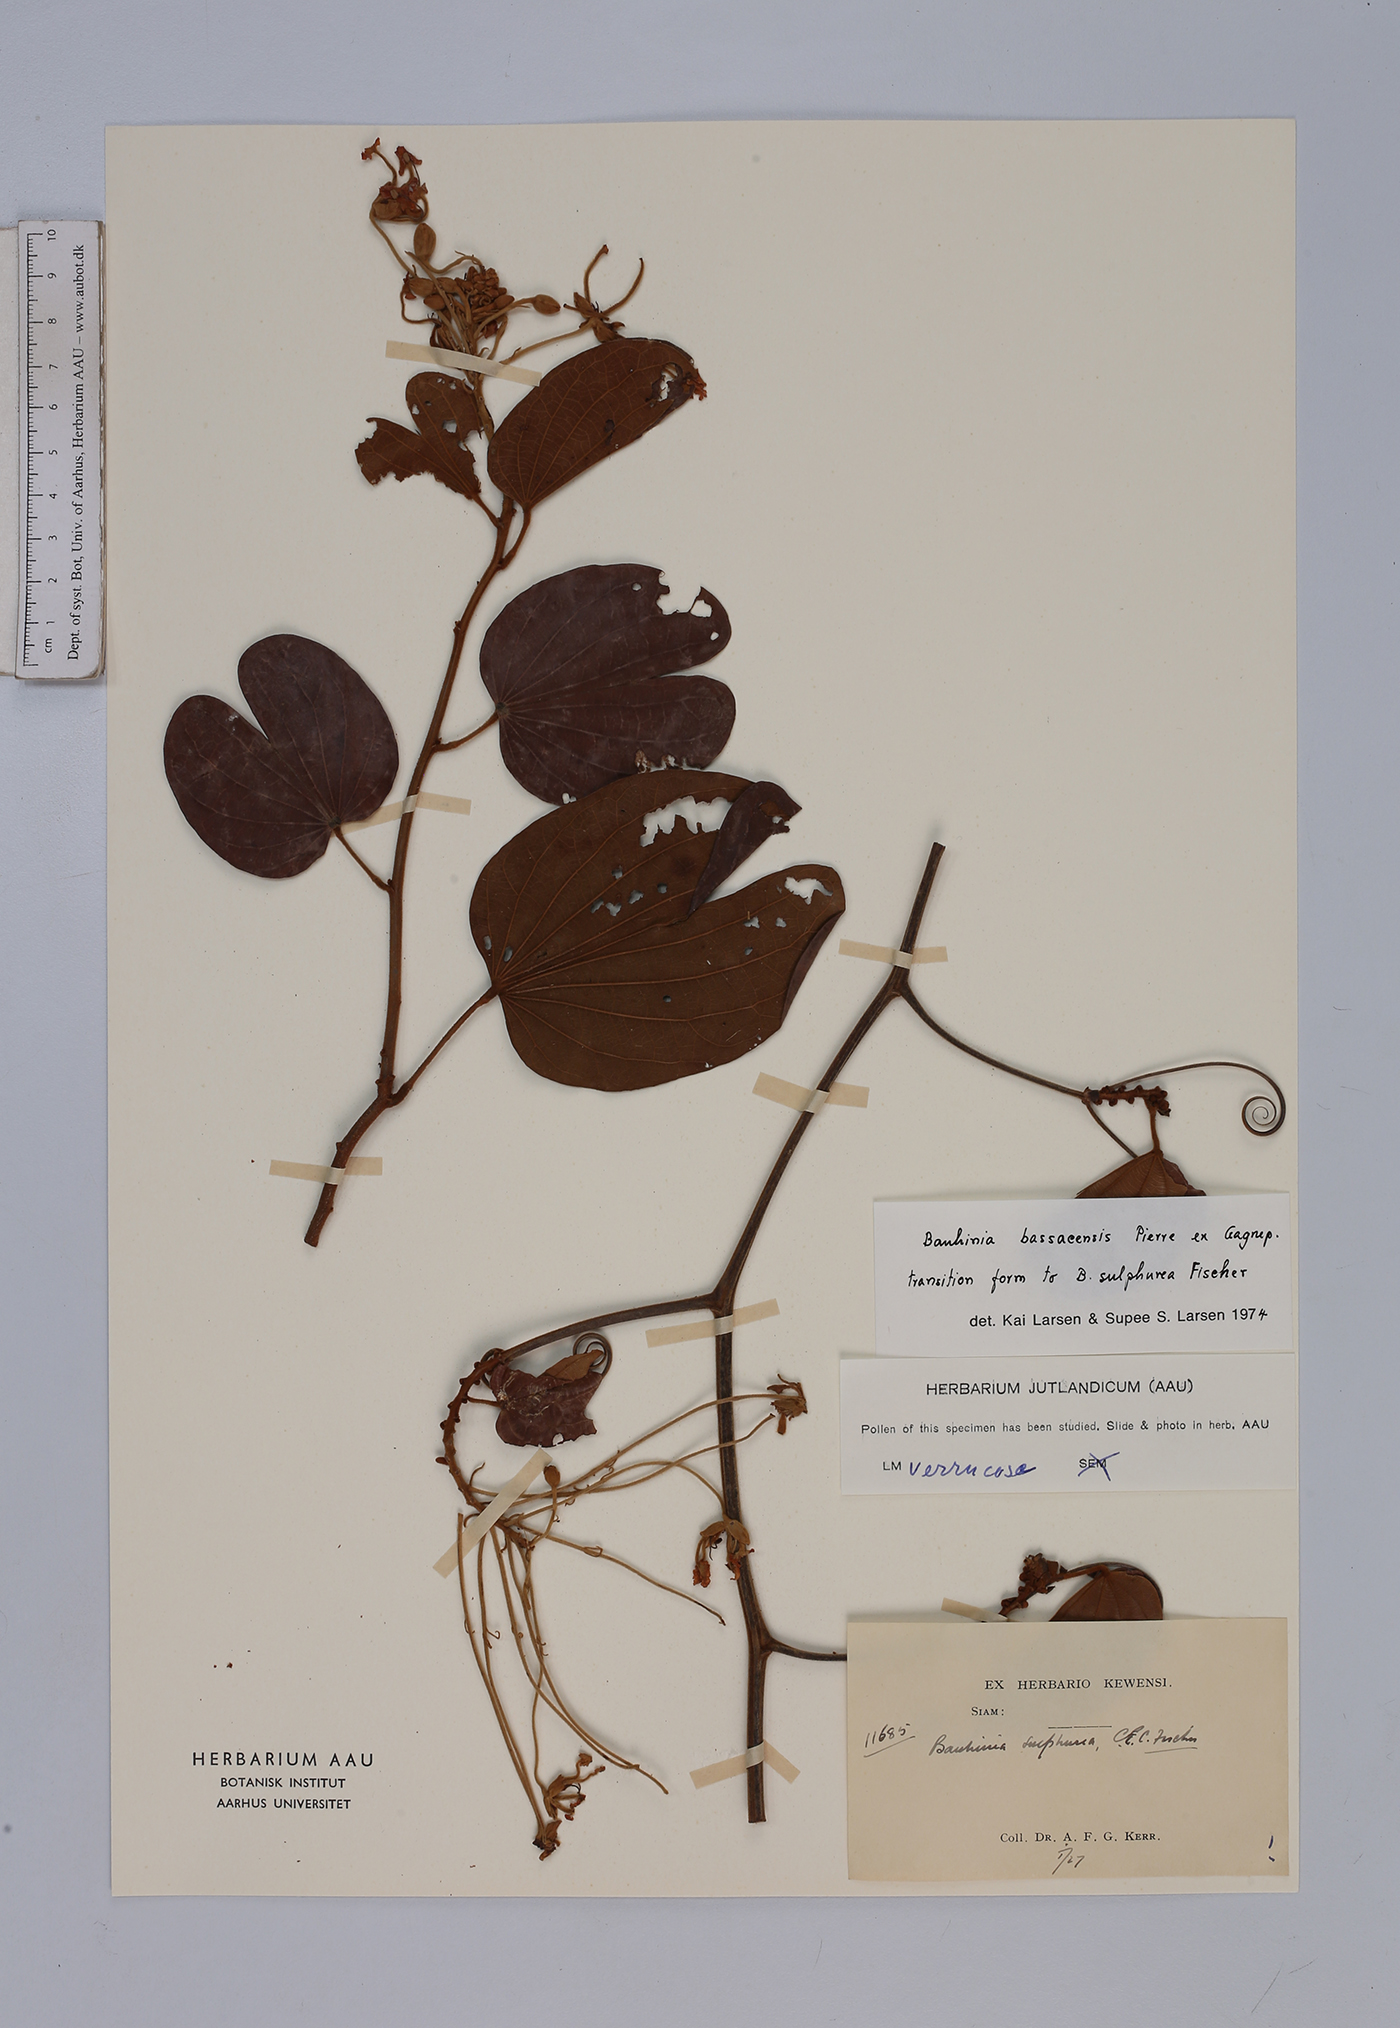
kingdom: Plantae
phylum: Tracheophyta
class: Magnoliopsida
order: Fabales
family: Fabaceae
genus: Phanera
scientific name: Phanera bassacensis
